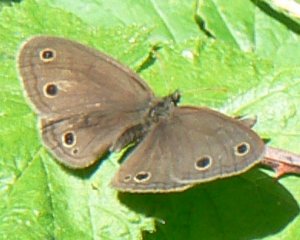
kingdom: Animalia
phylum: Arthropoda
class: Insecta
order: Lepidoptera
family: Nymphalidae
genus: Euptychia
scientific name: Euptychia cymela
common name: Little Wood Satyr
